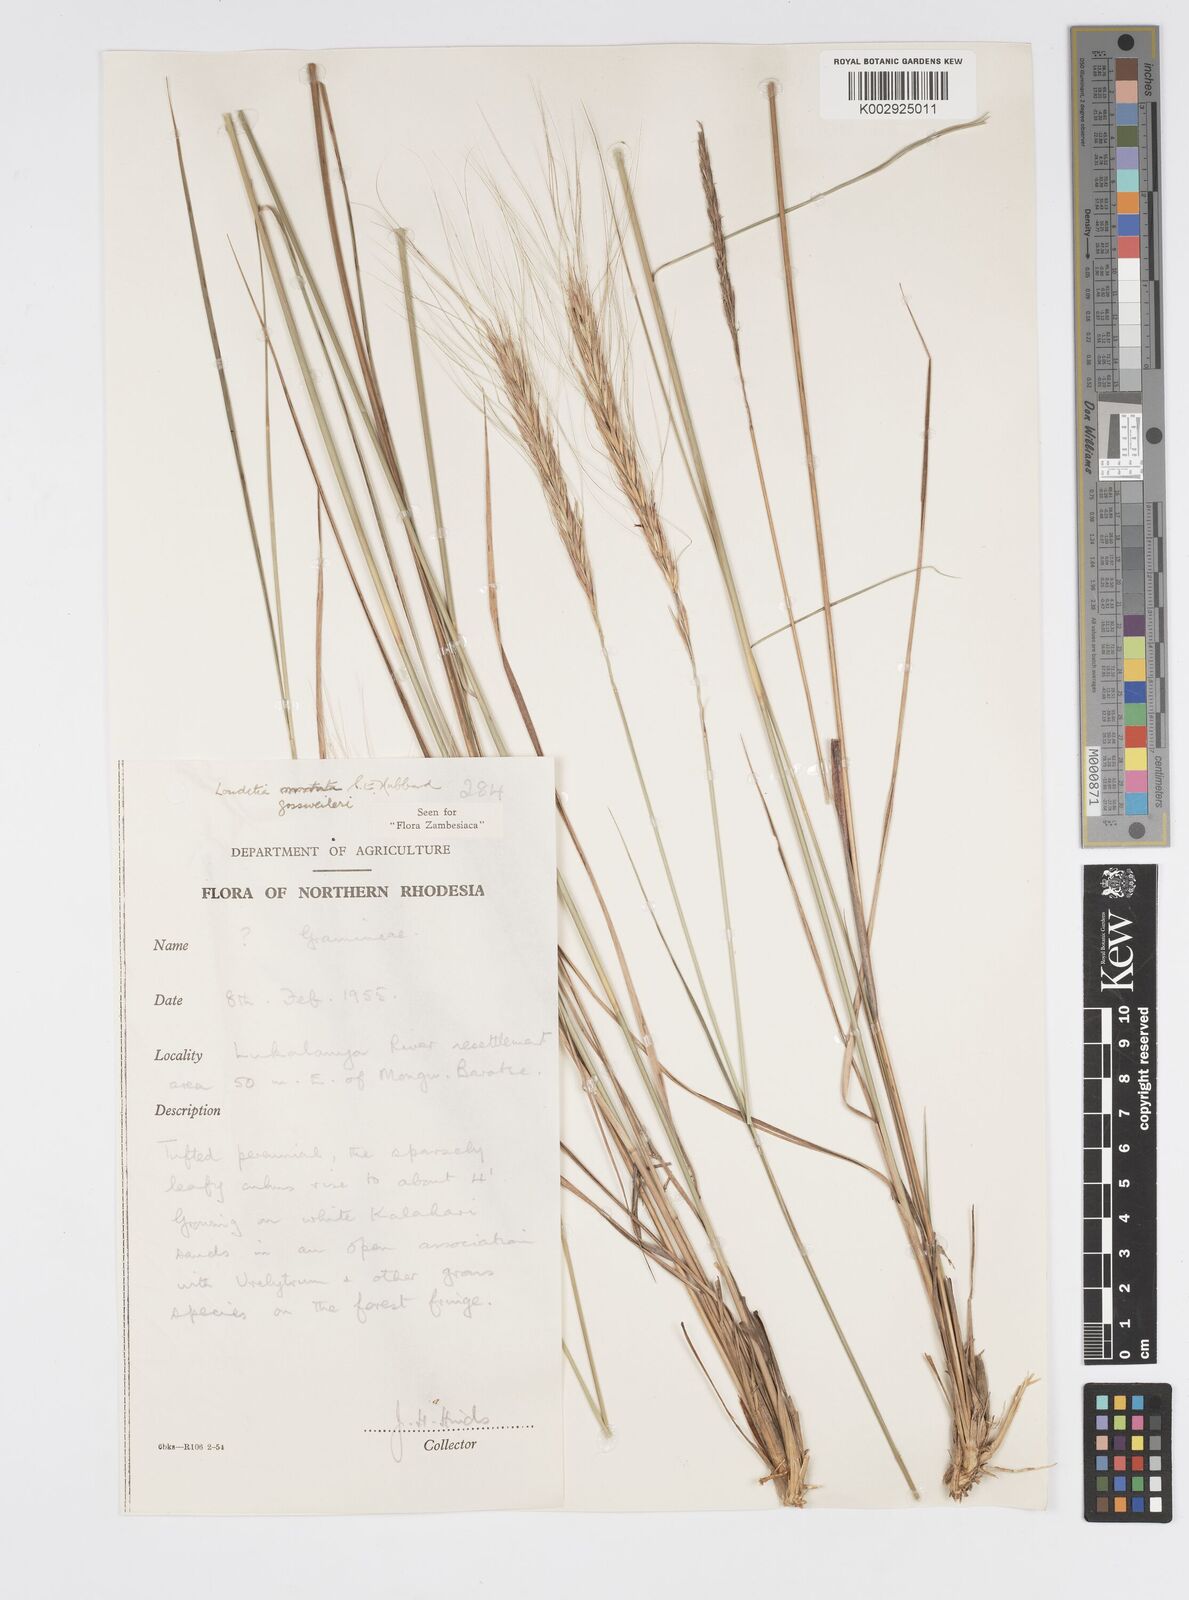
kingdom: Plantae
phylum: Tracheophyta
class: Liliopsida
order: Poales
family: Poaceae
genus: Loudetia
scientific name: Loudetia
